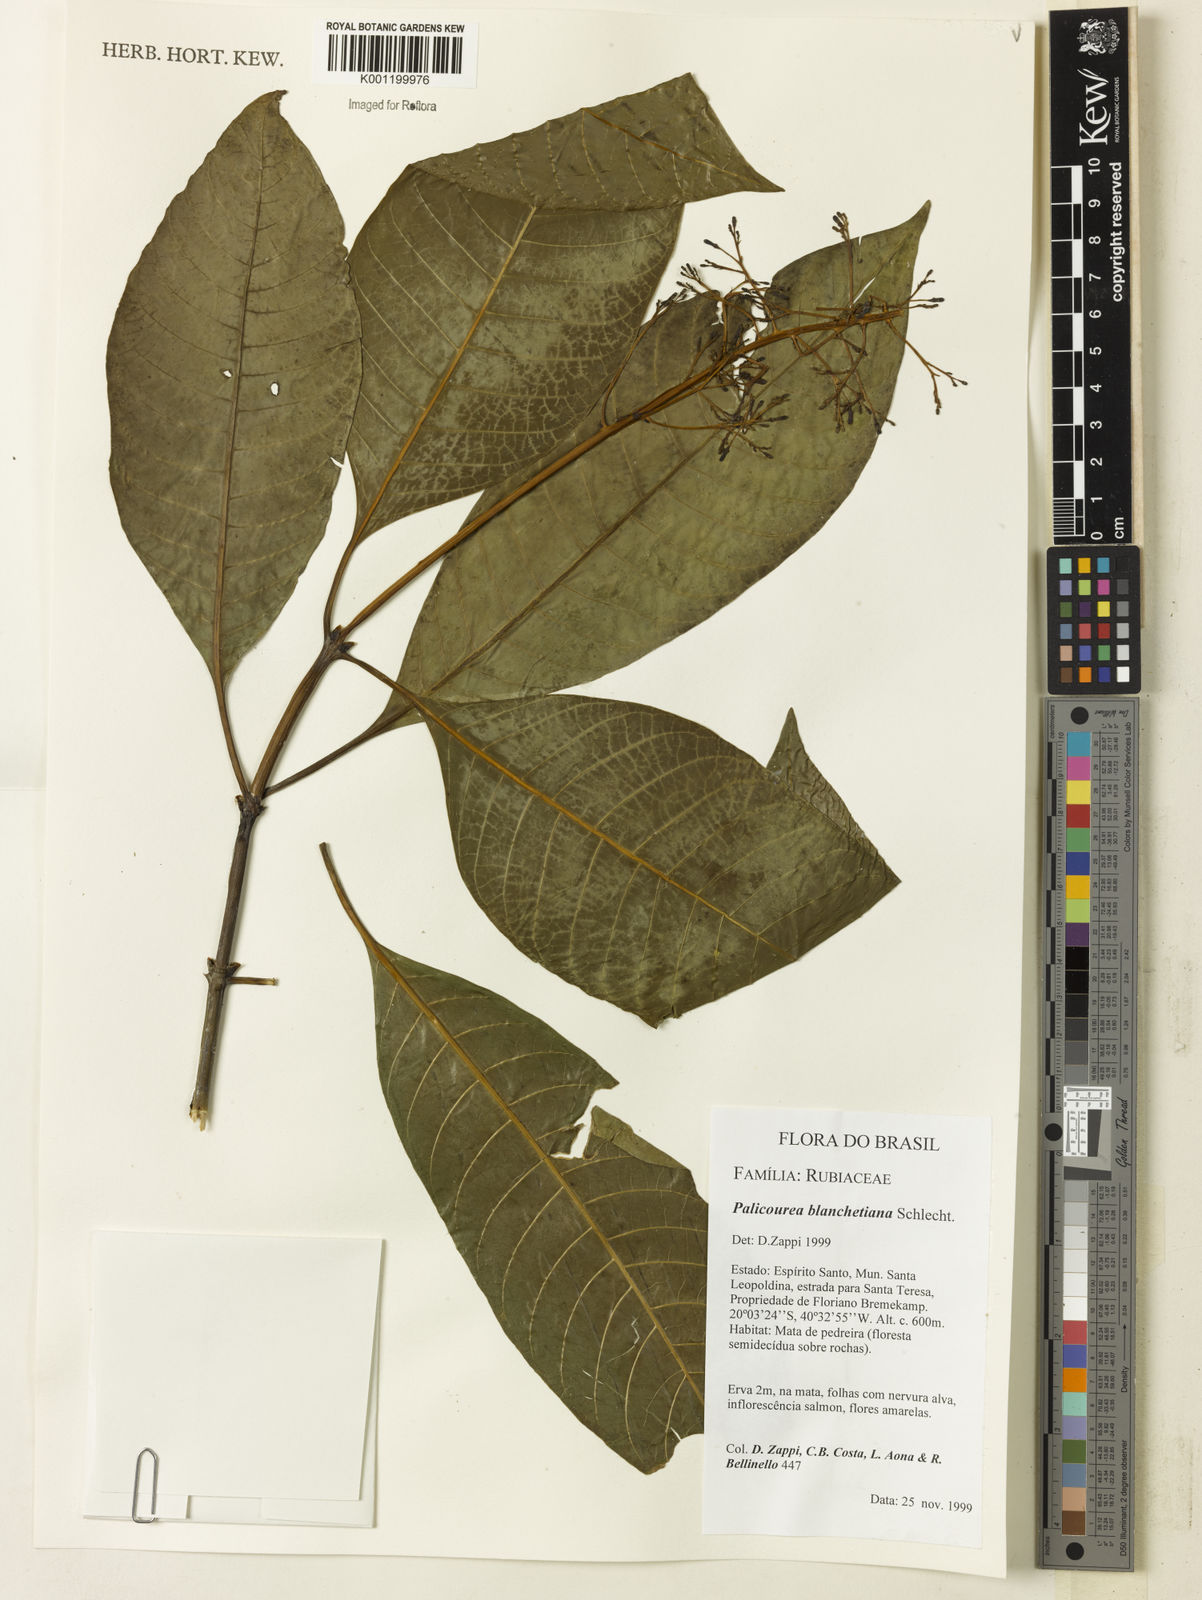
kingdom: Plantae
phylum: Tracheophyta
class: Magnoliopsida
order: Gentianales
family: Rubiaceae
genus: Palicourea
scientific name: Palicourea blanchetiana
